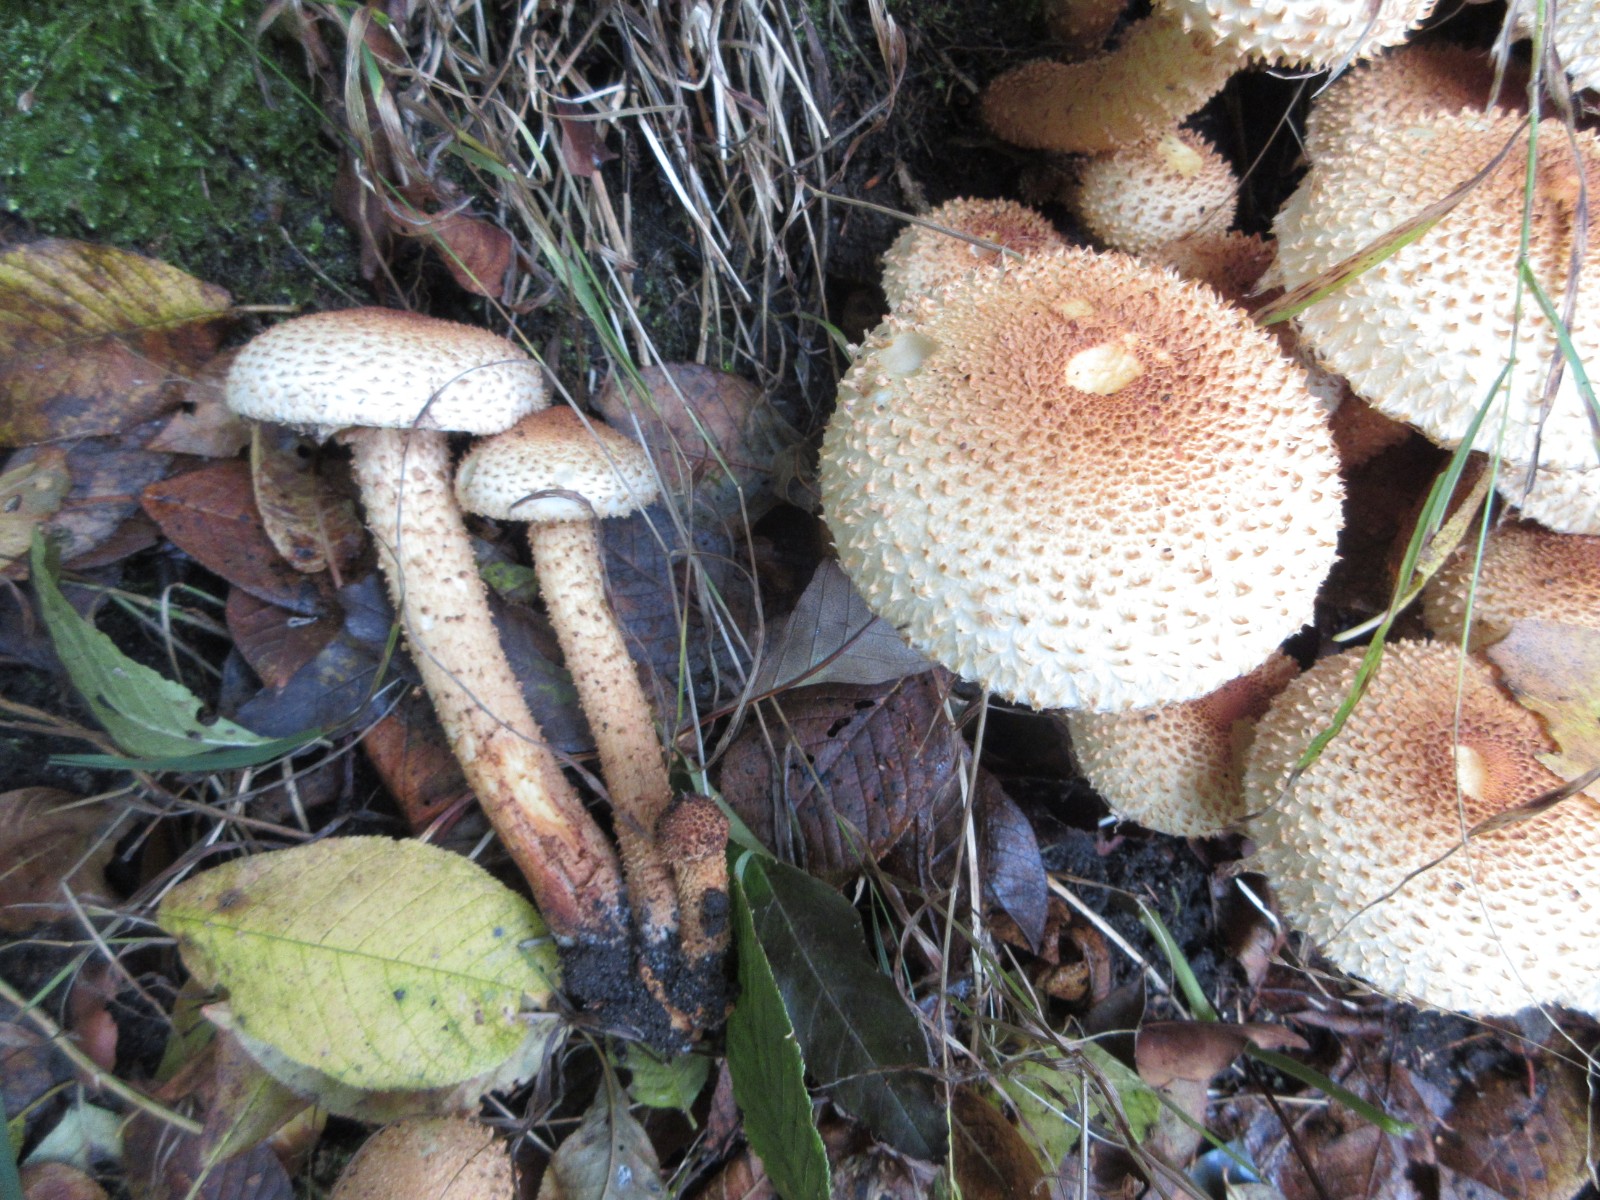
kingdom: Fungi
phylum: Basidiomycota
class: Agaricomycetes
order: Agaricales
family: Strophariaceae
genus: Pholiota
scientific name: Pholiota squarrosa
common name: krumskællet skælhat
